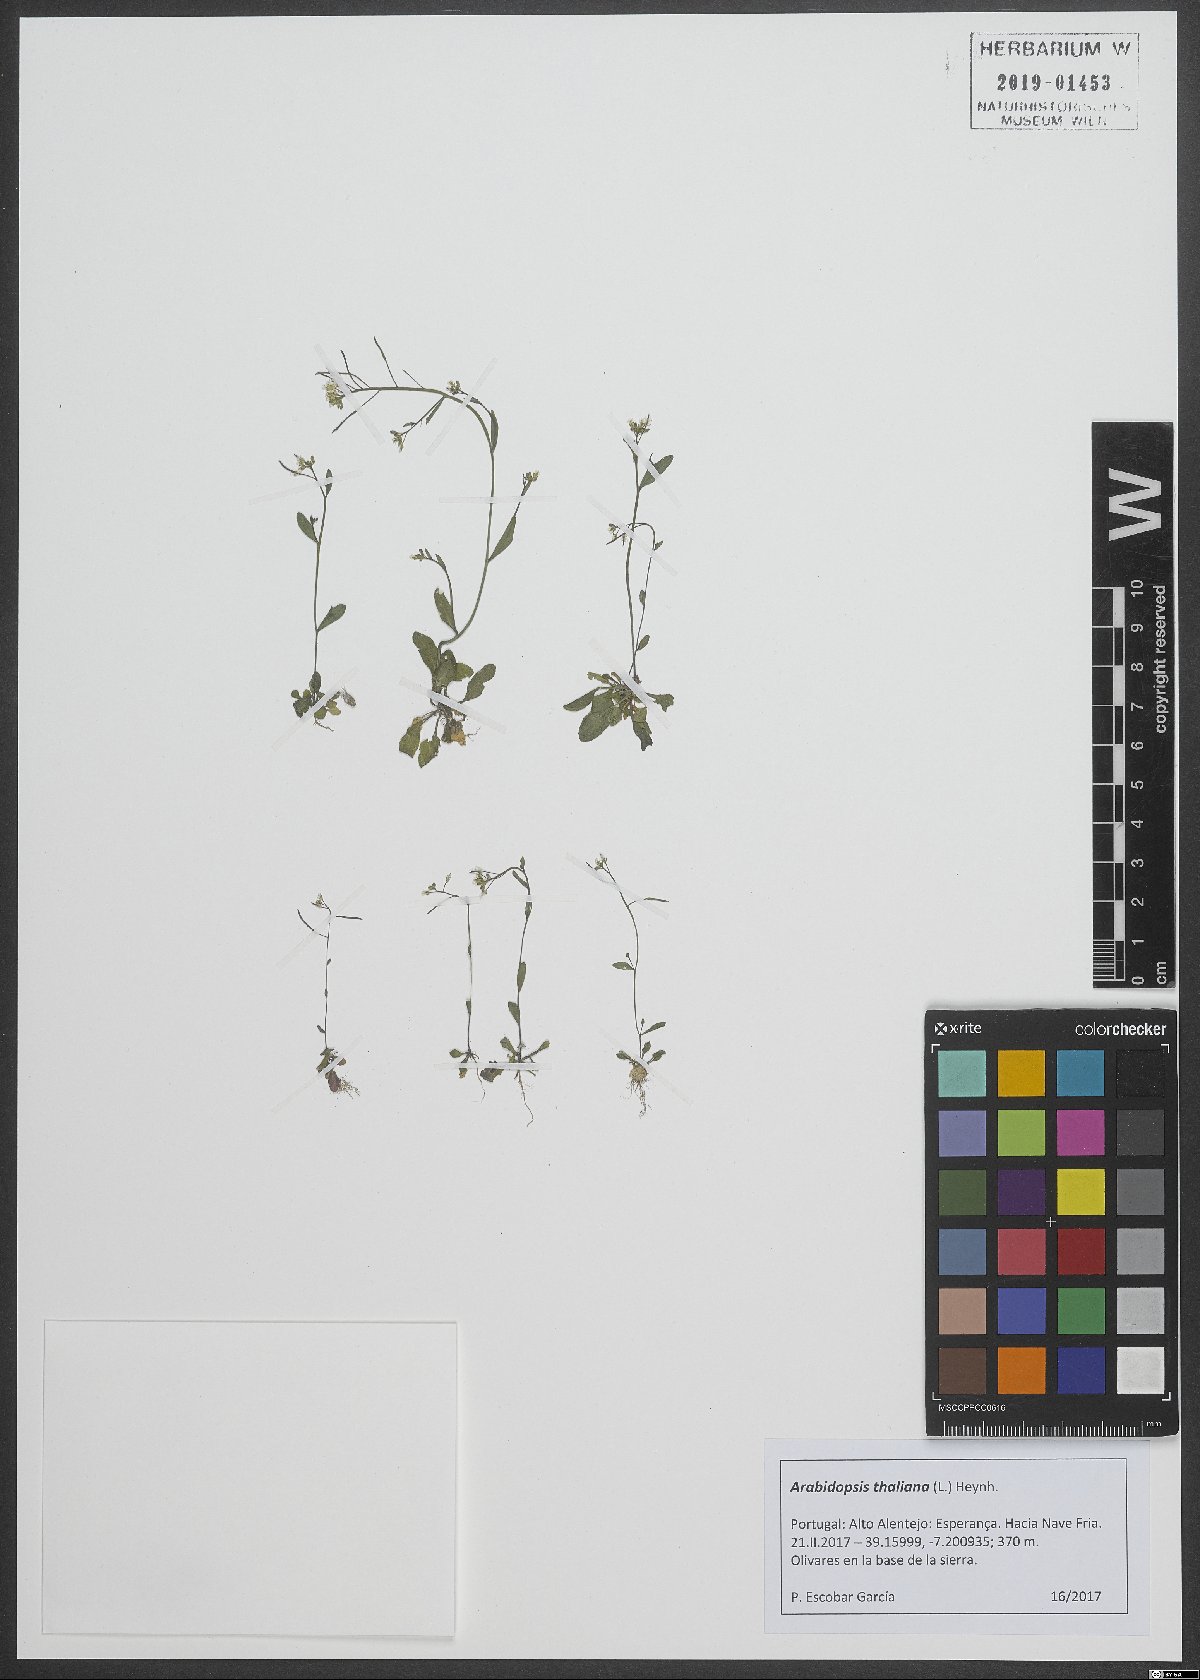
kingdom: Plantae
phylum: Tracheophyta
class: Magnoliopsida
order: Brassicales
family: Brassicaceae
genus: Arabidopsis
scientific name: Arabidopsis thaliana
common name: Thale cress
